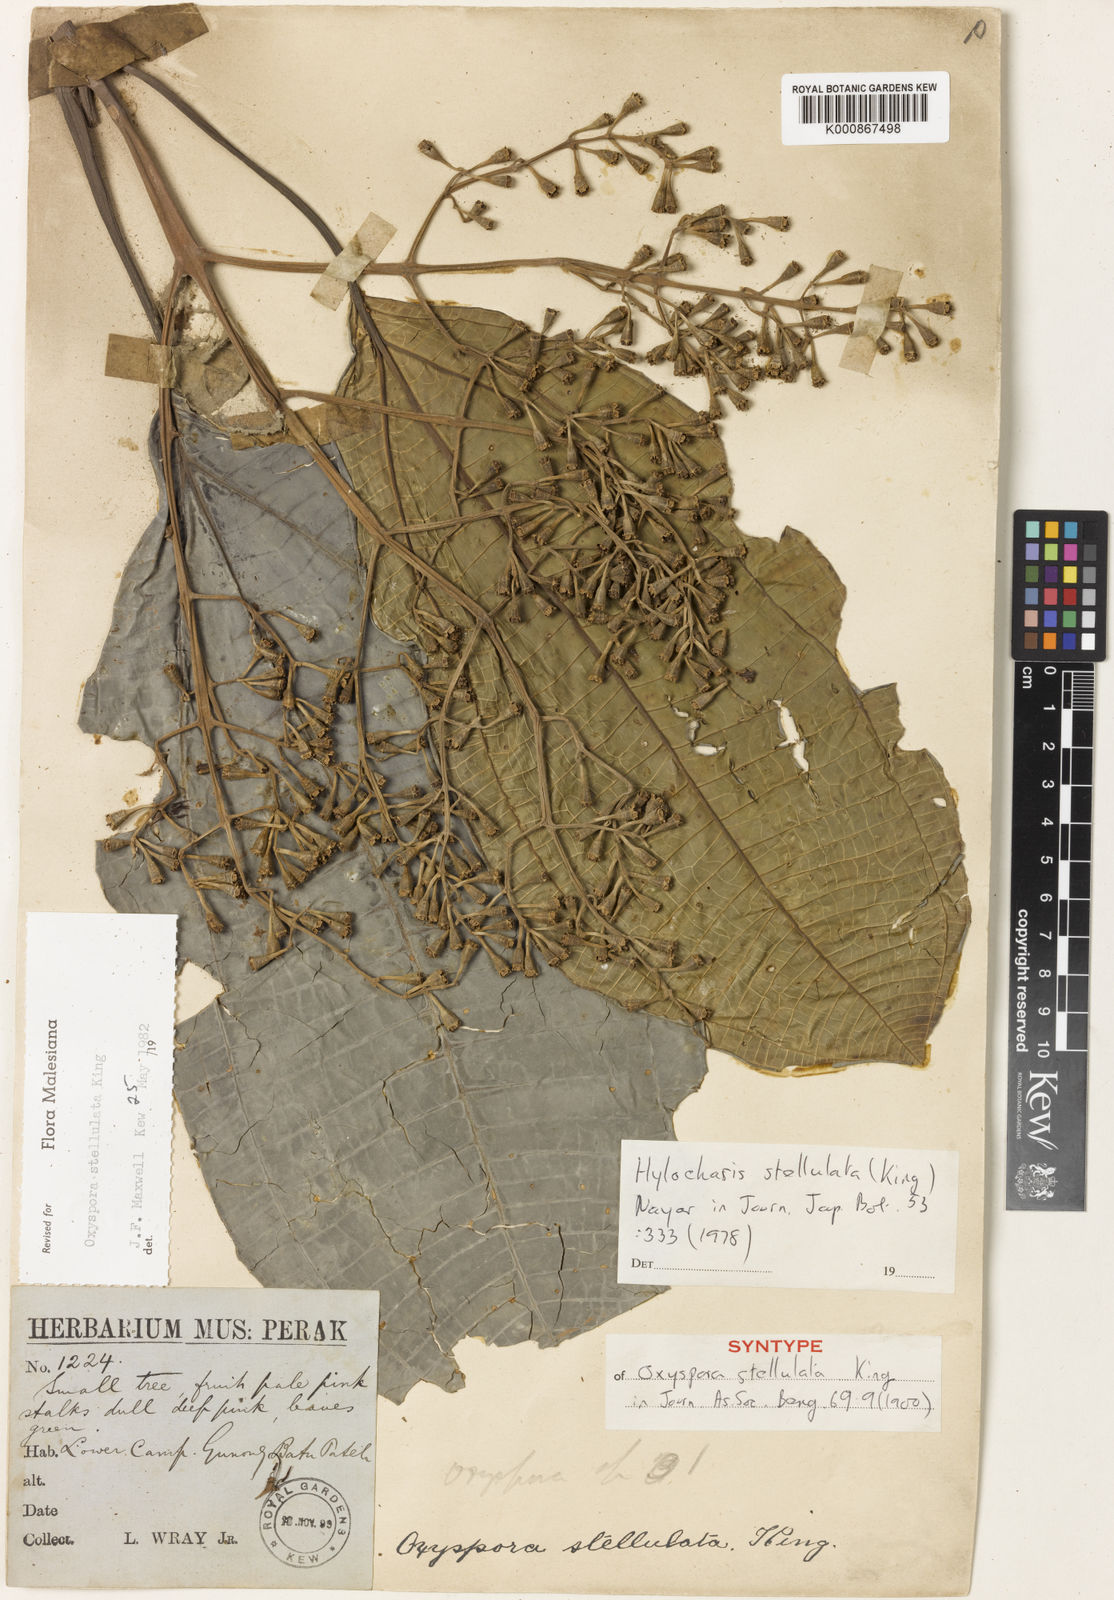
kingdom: Plantae
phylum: Tracheophyta
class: Magnoliopsida
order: Myrtales
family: Melastomataceae
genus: Hylocharis
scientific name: Hylocharis stellulata
